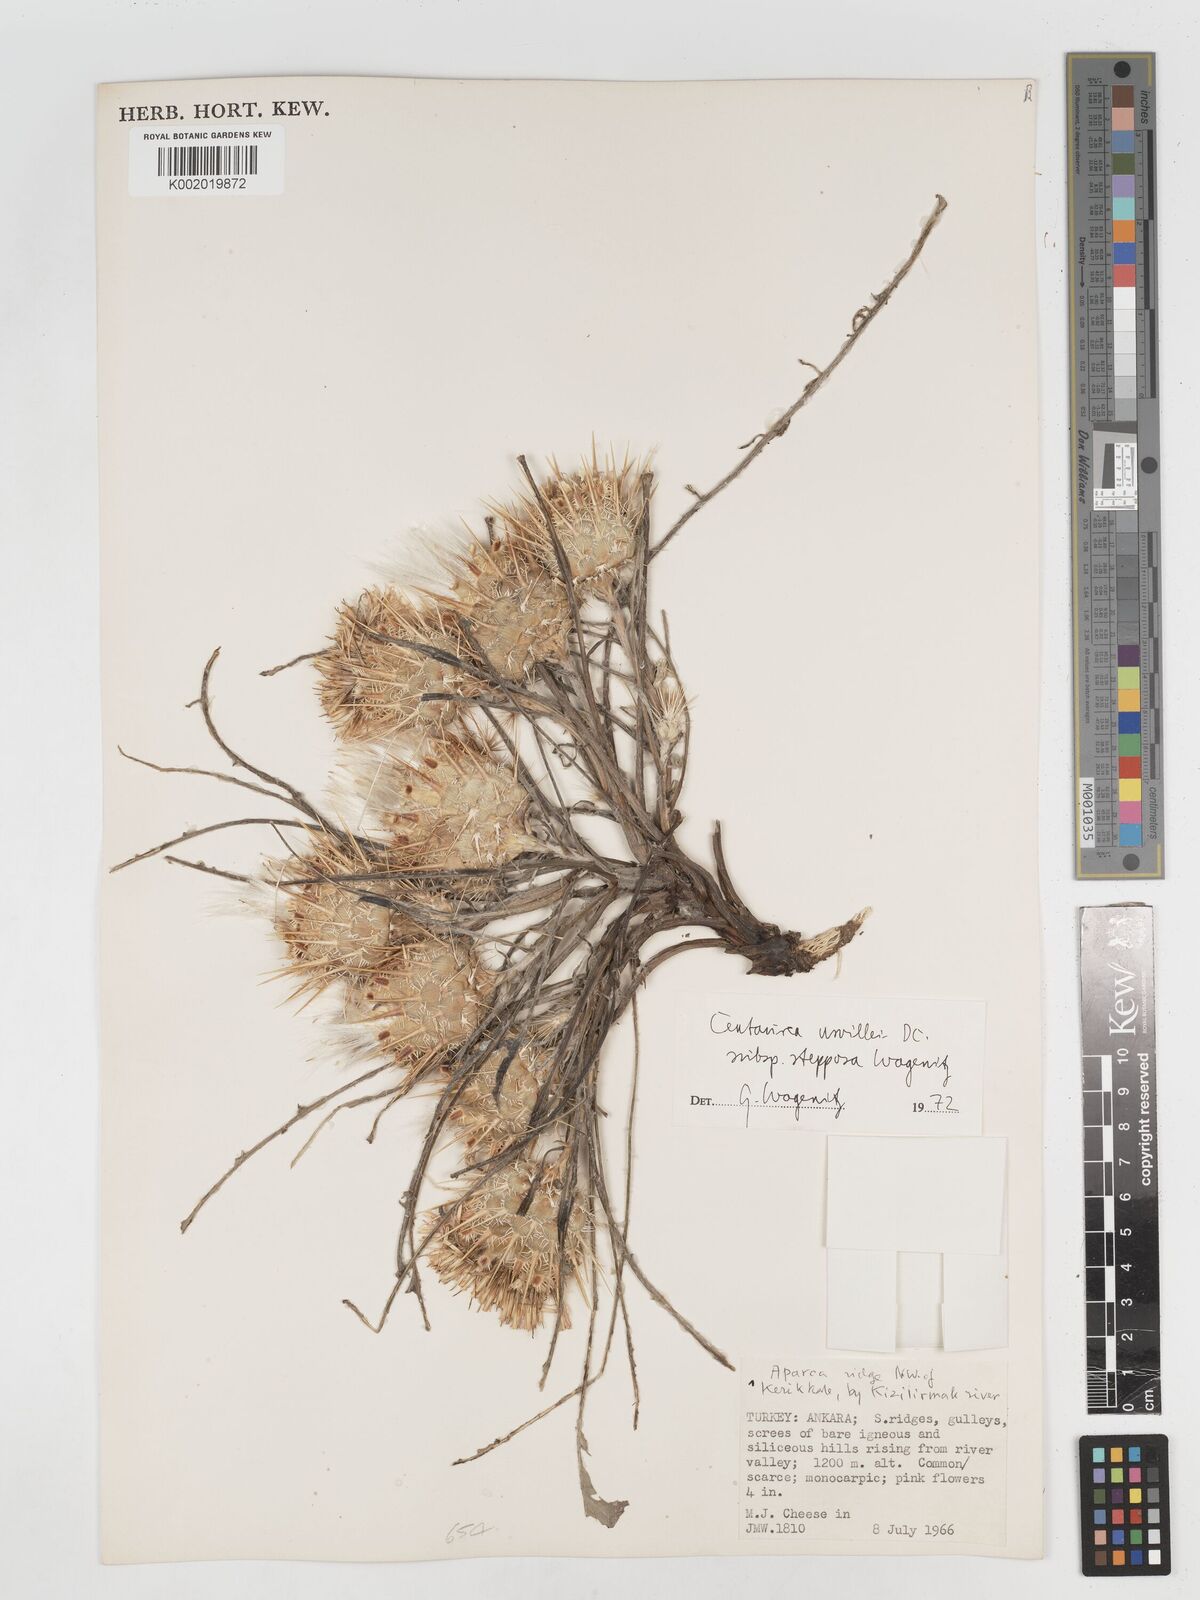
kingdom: Plantae
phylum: Tracheophyta
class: Magnoliopsida
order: Asterales
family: Asteraceae
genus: Centaurea
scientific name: Centaurea urvillei
